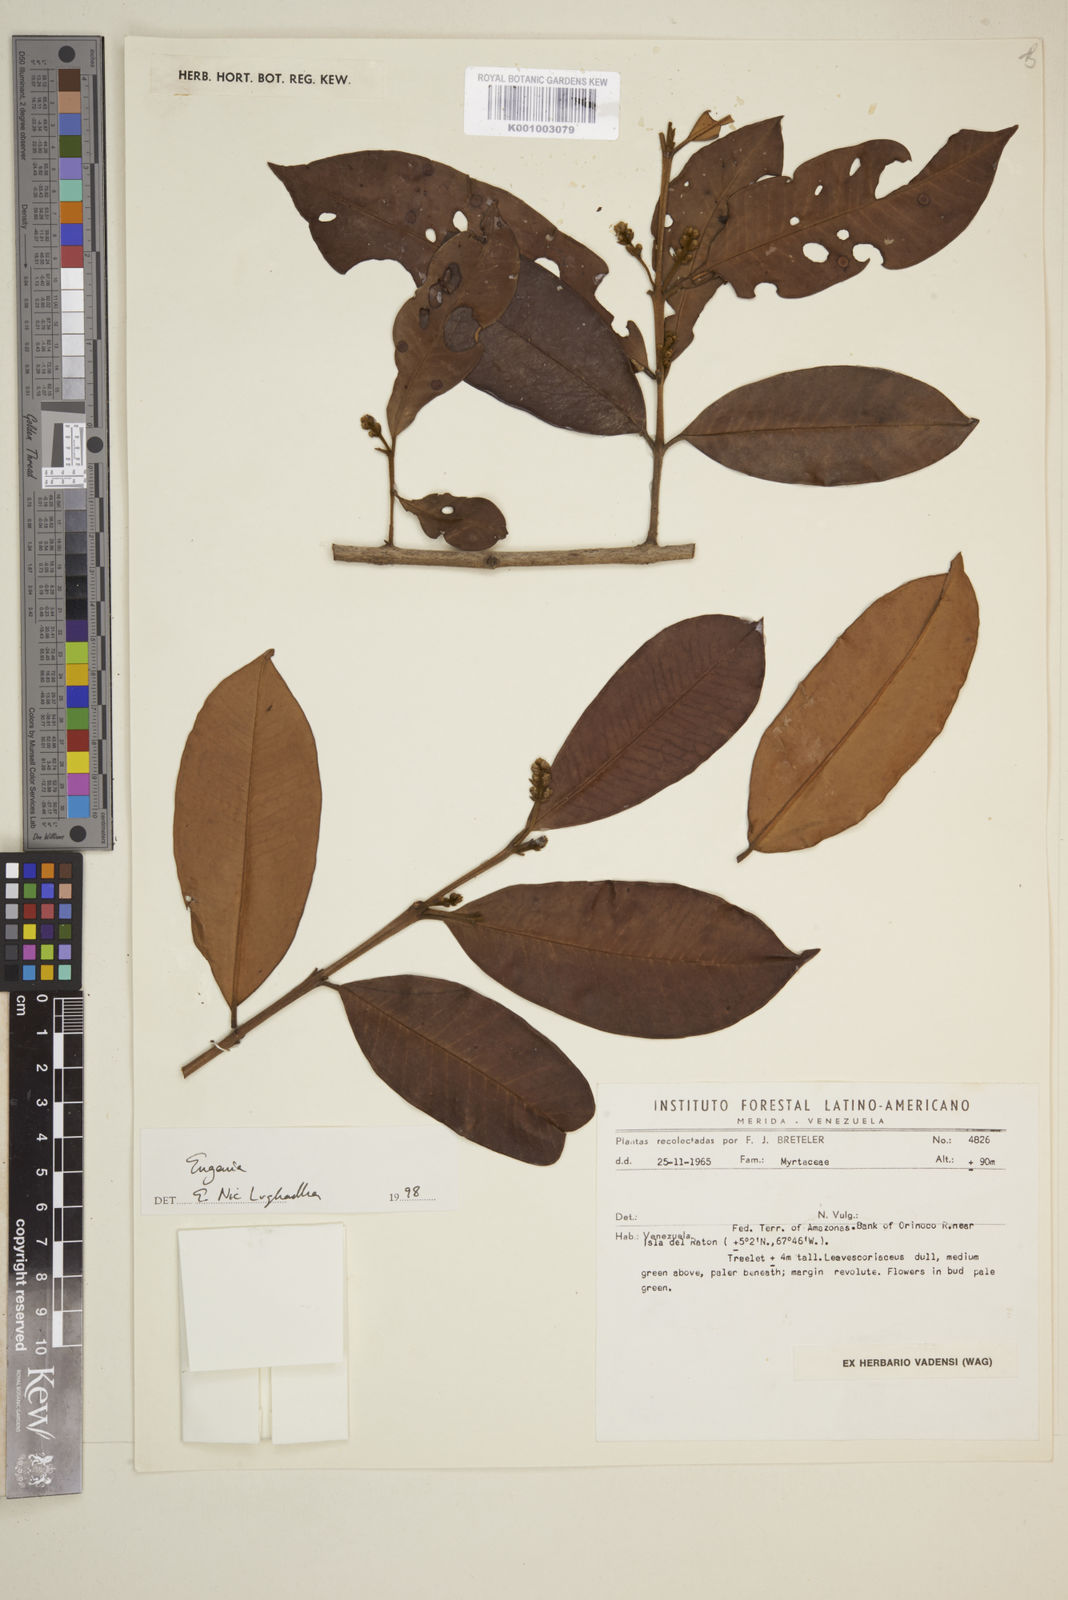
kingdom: Plantae
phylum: Tracheophyta
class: Magnoliopsida
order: Myrtales
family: Myrtaceae
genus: Eugenia
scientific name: Eugenia
